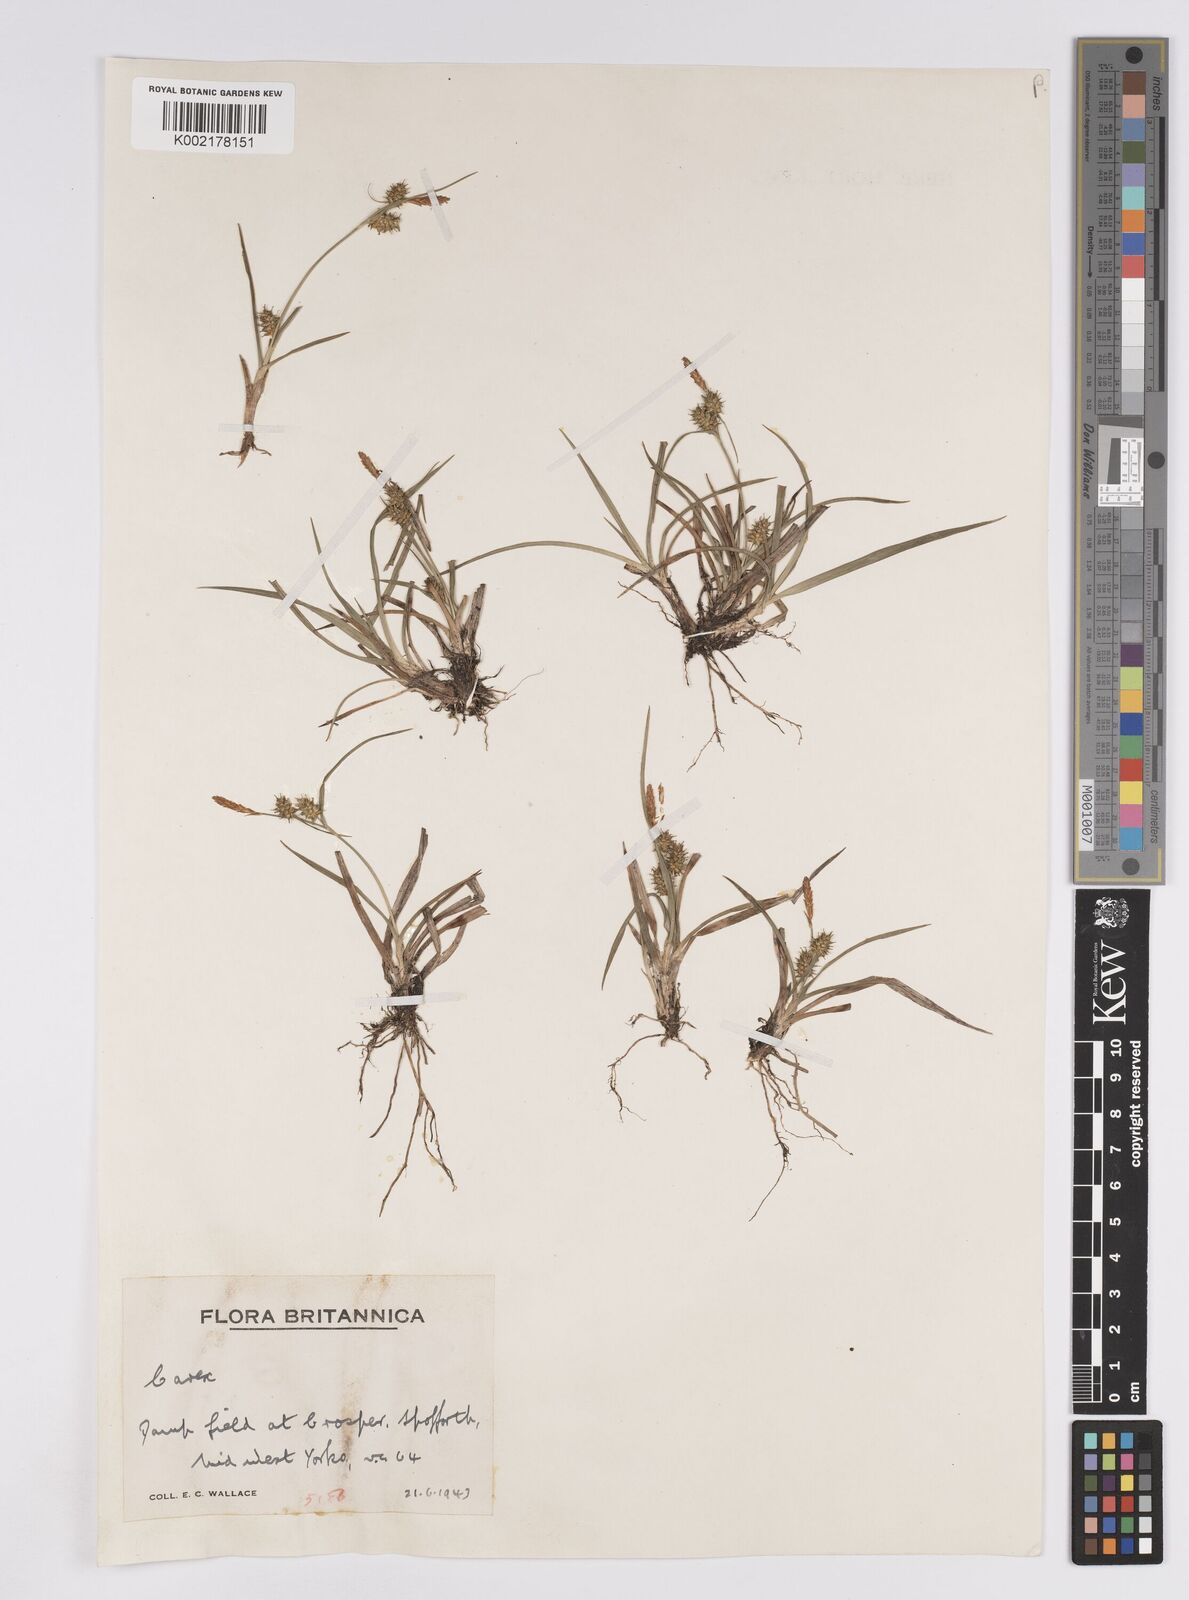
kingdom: Plantae
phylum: Tracheophyta
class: Liliopsida
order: Poales
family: Cyperaceae
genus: Carex
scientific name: Carex demissa
